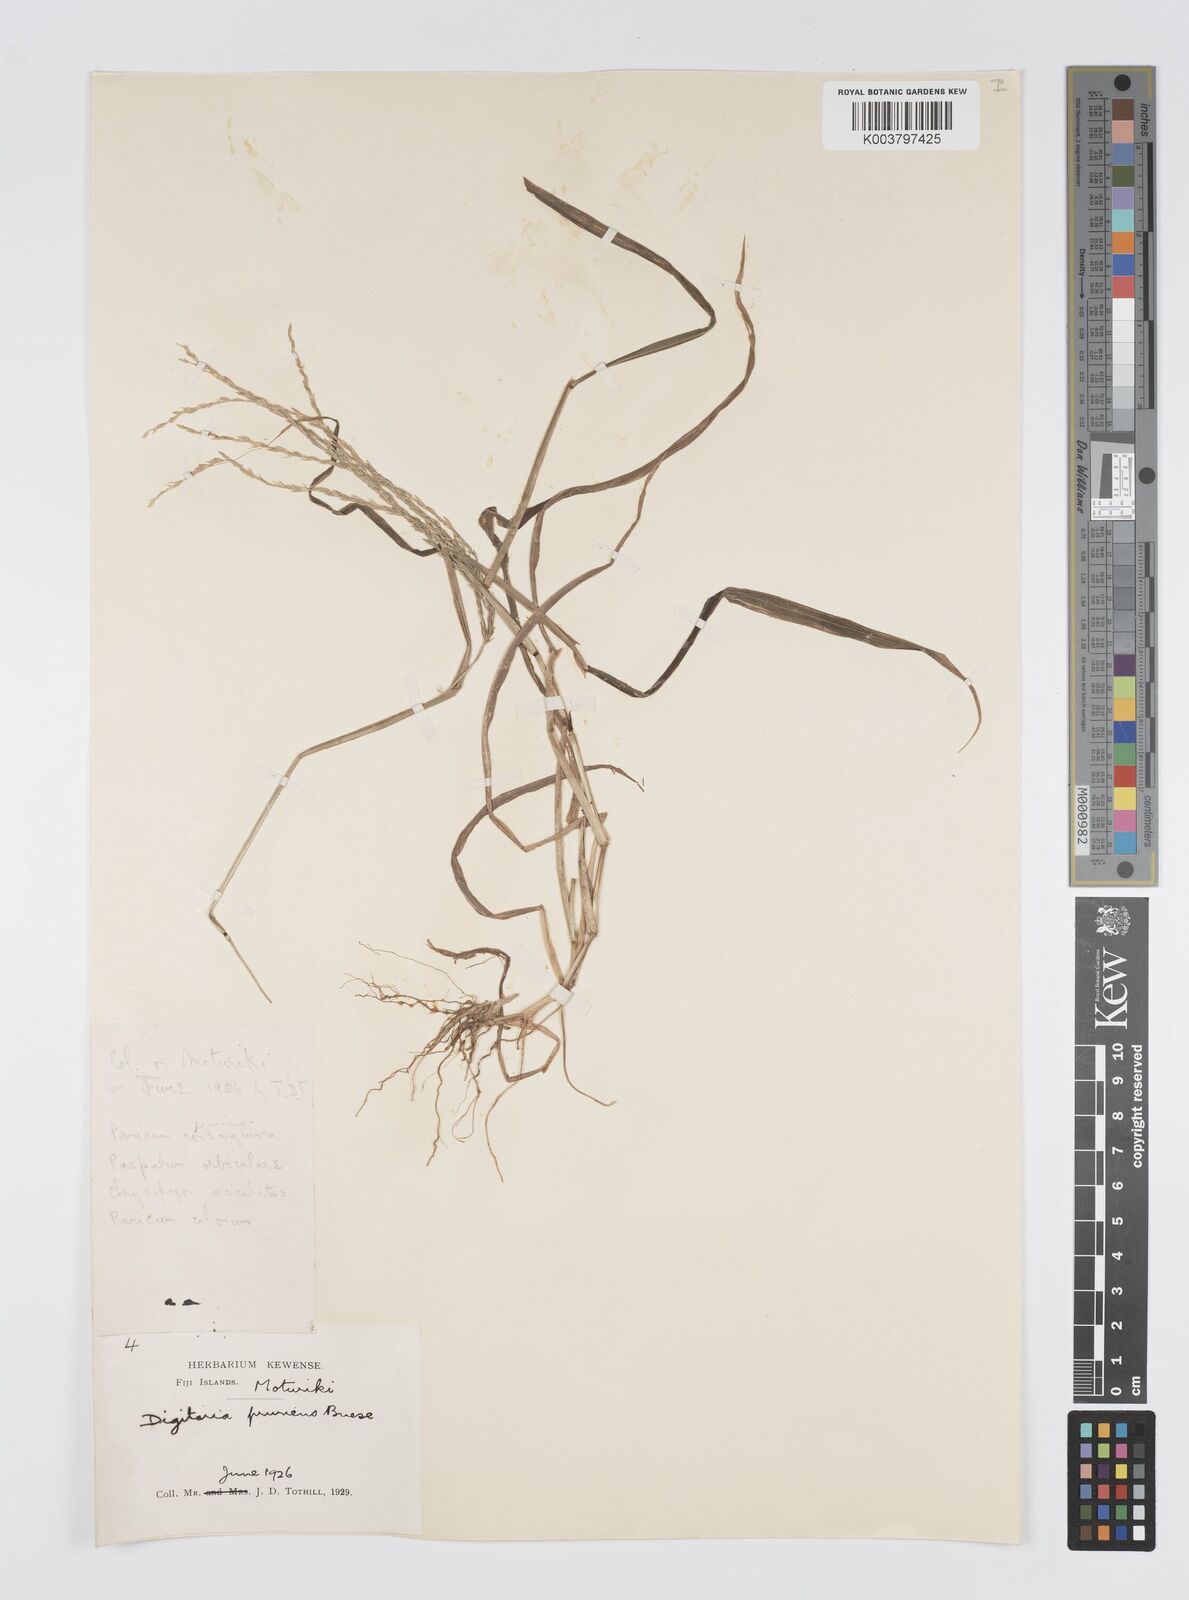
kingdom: Plantae
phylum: Tracheophyta
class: Liliopsida
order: Poales
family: Poaceae
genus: Digitaria
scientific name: Digitaria setigera
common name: East indian crabgrass
